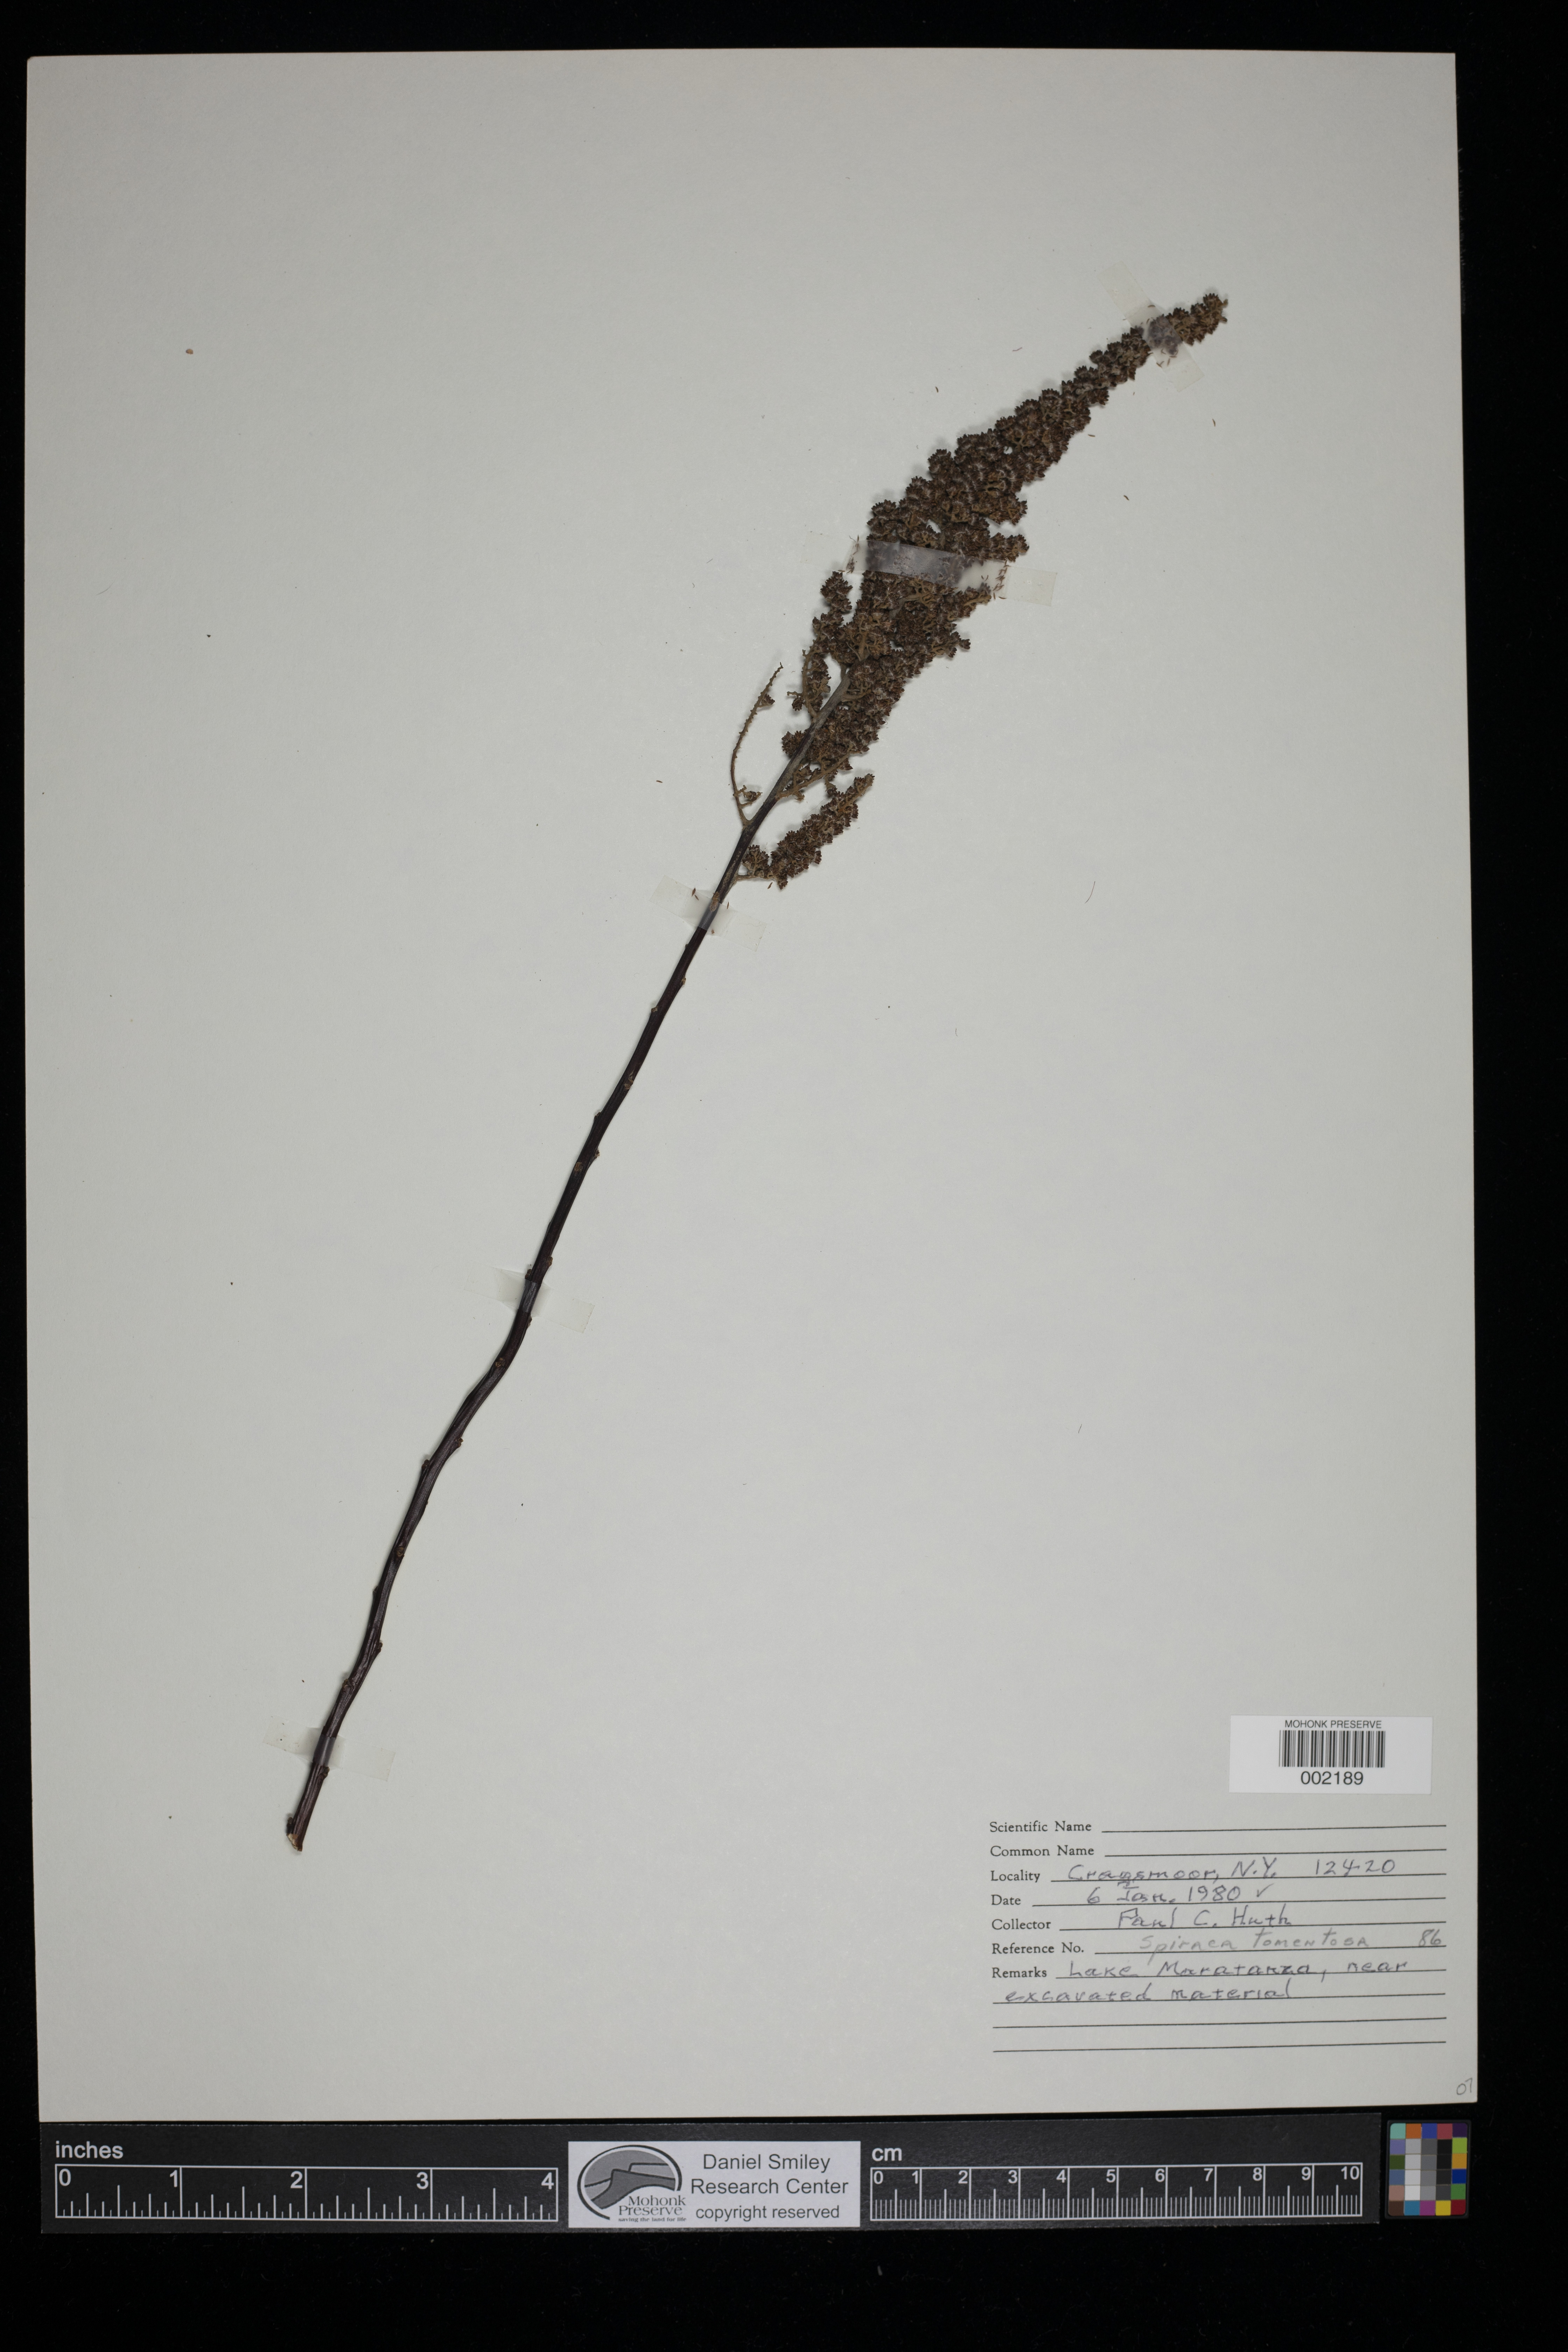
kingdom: Plantae
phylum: Tracheophyta
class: Magnoliopsida
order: Rosales
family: Rosaceae
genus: Spiraea
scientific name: Spiraea tomentosa
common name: Hardhack
